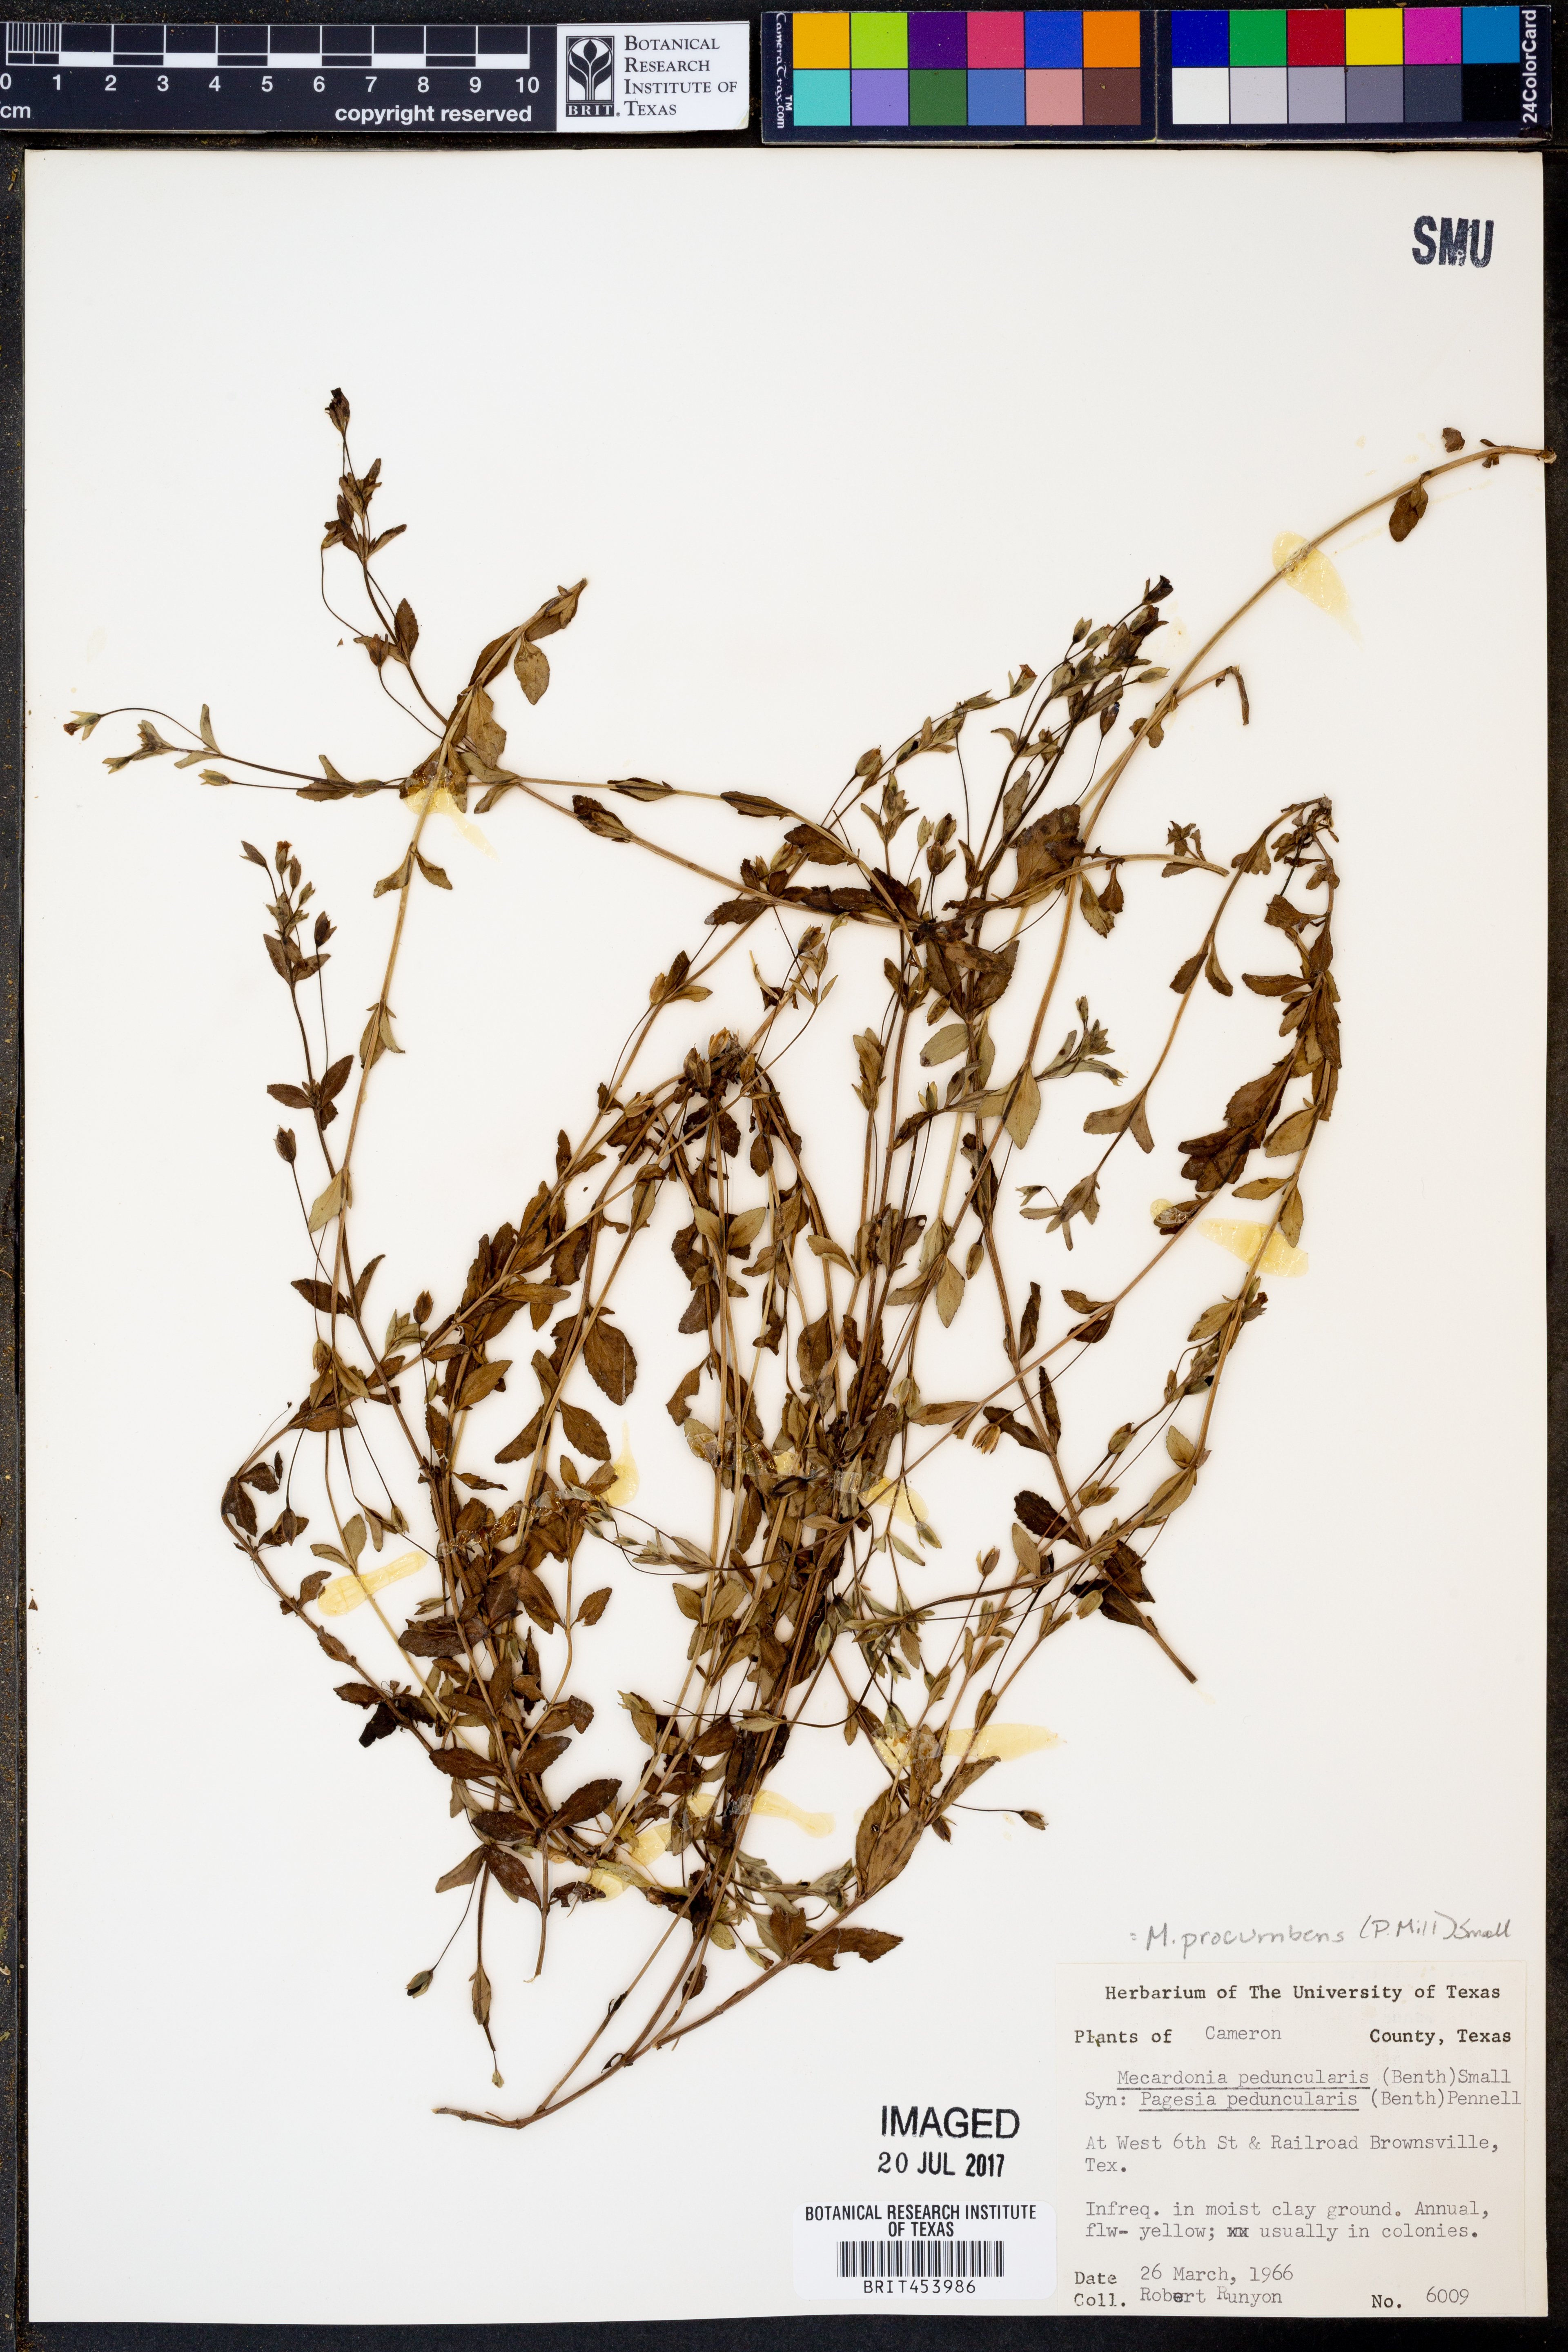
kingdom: Plantae
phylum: Tracheophyta
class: Magnoliopsida
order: Lamiales
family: Plantaginaceae
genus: Mecardonia
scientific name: Mecardonia procumbens
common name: Baby jump-up
